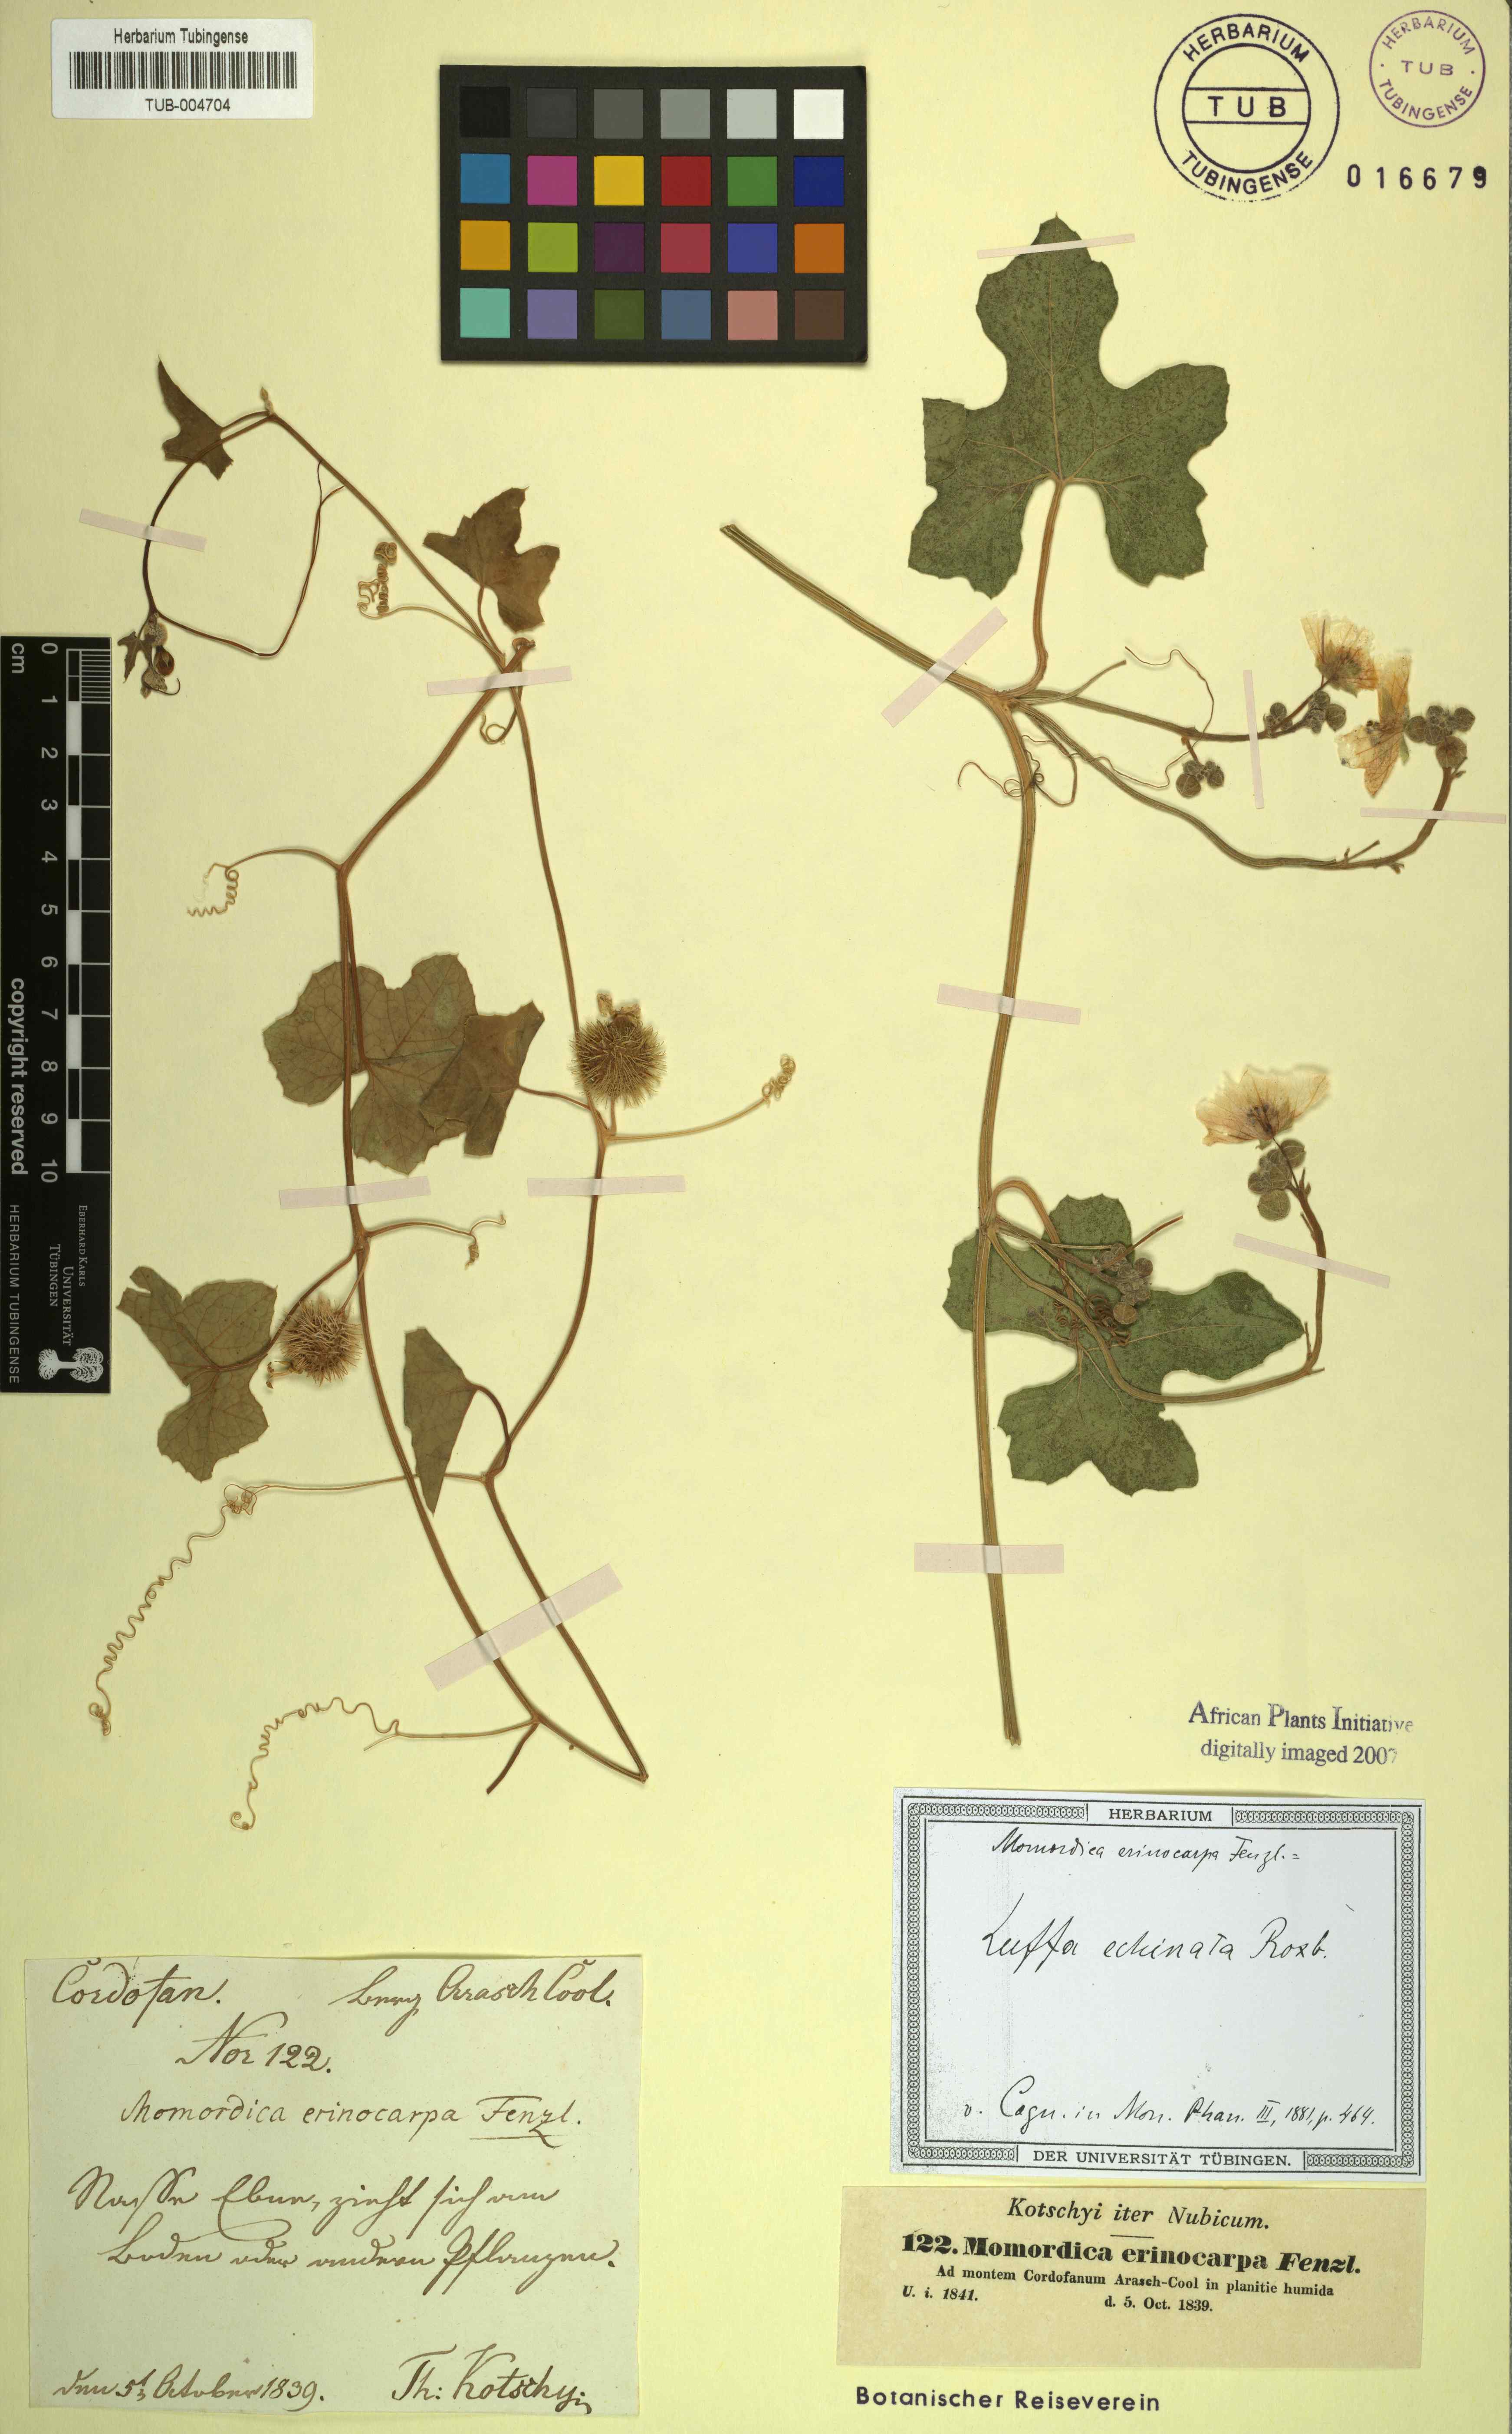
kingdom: Plantae
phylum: Tracheophyta
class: Magnoliopsida
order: Cucurbitales
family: Cucurbitaceae
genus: Luffa
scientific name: Luffa echinata
